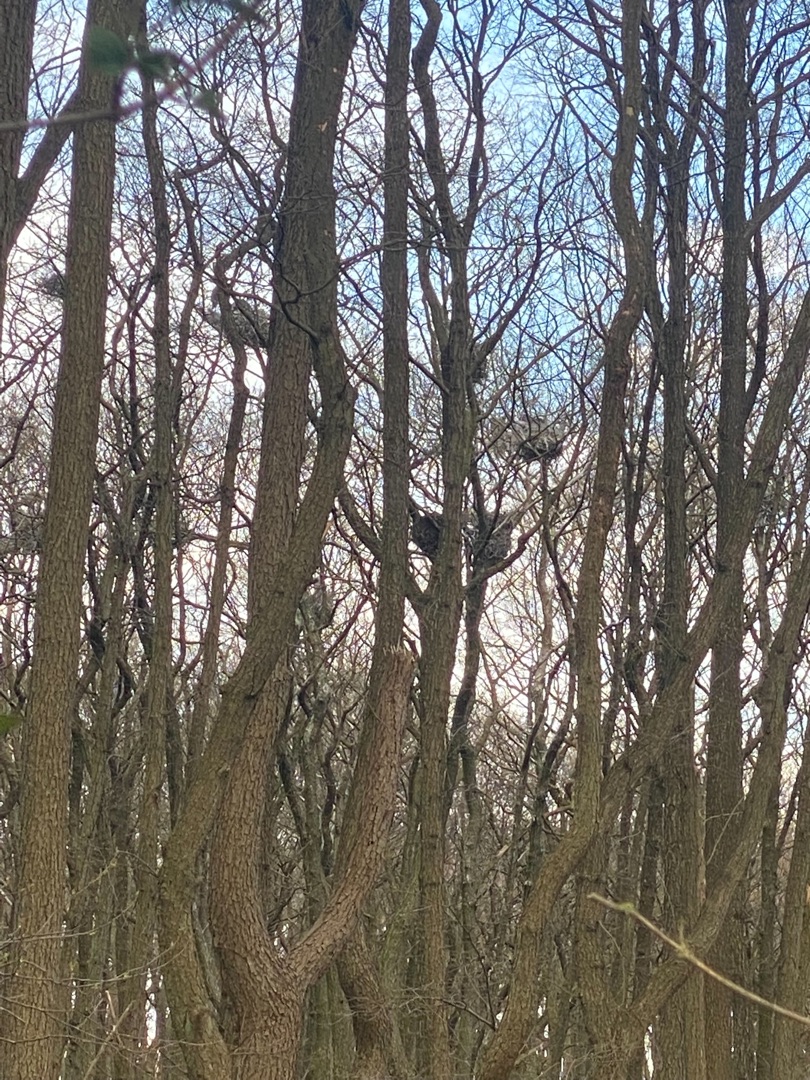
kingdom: Animalia
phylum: Chordata
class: Aves
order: Pelecaniformes
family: Ardeidae
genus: Ardea
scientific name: Ardea cinerea
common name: Fiskehejre
